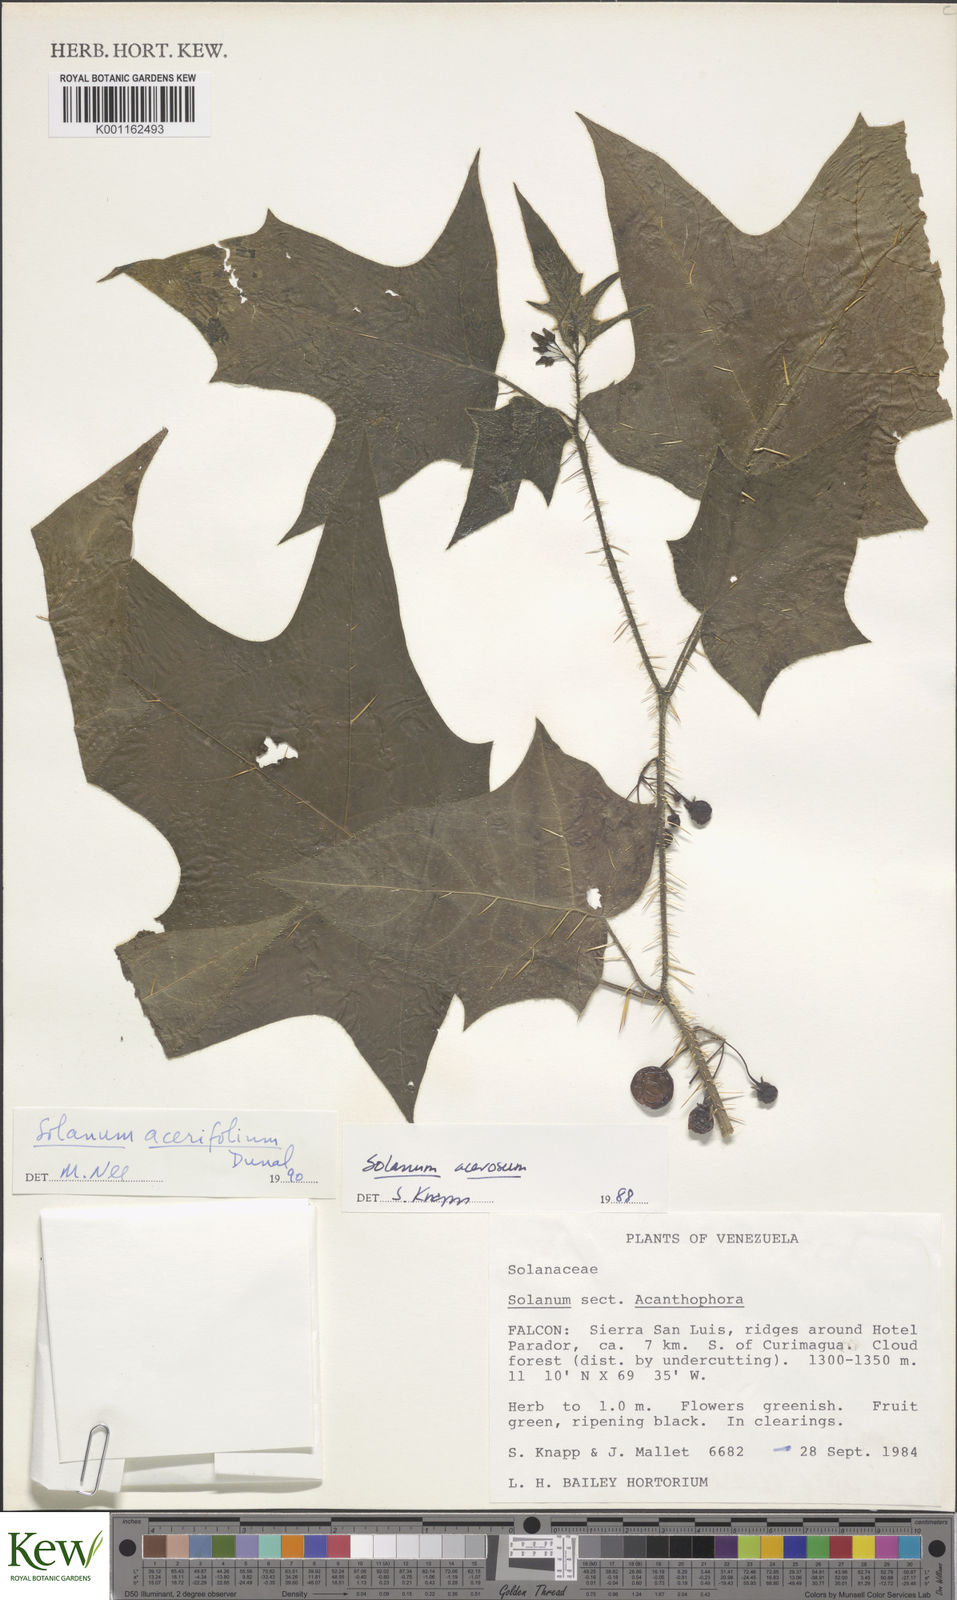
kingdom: Plantae
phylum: Tracheophyta
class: Magnoliopsida
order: Solanales
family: Solanaceae
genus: Solanum
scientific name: Solanum acerifolium
